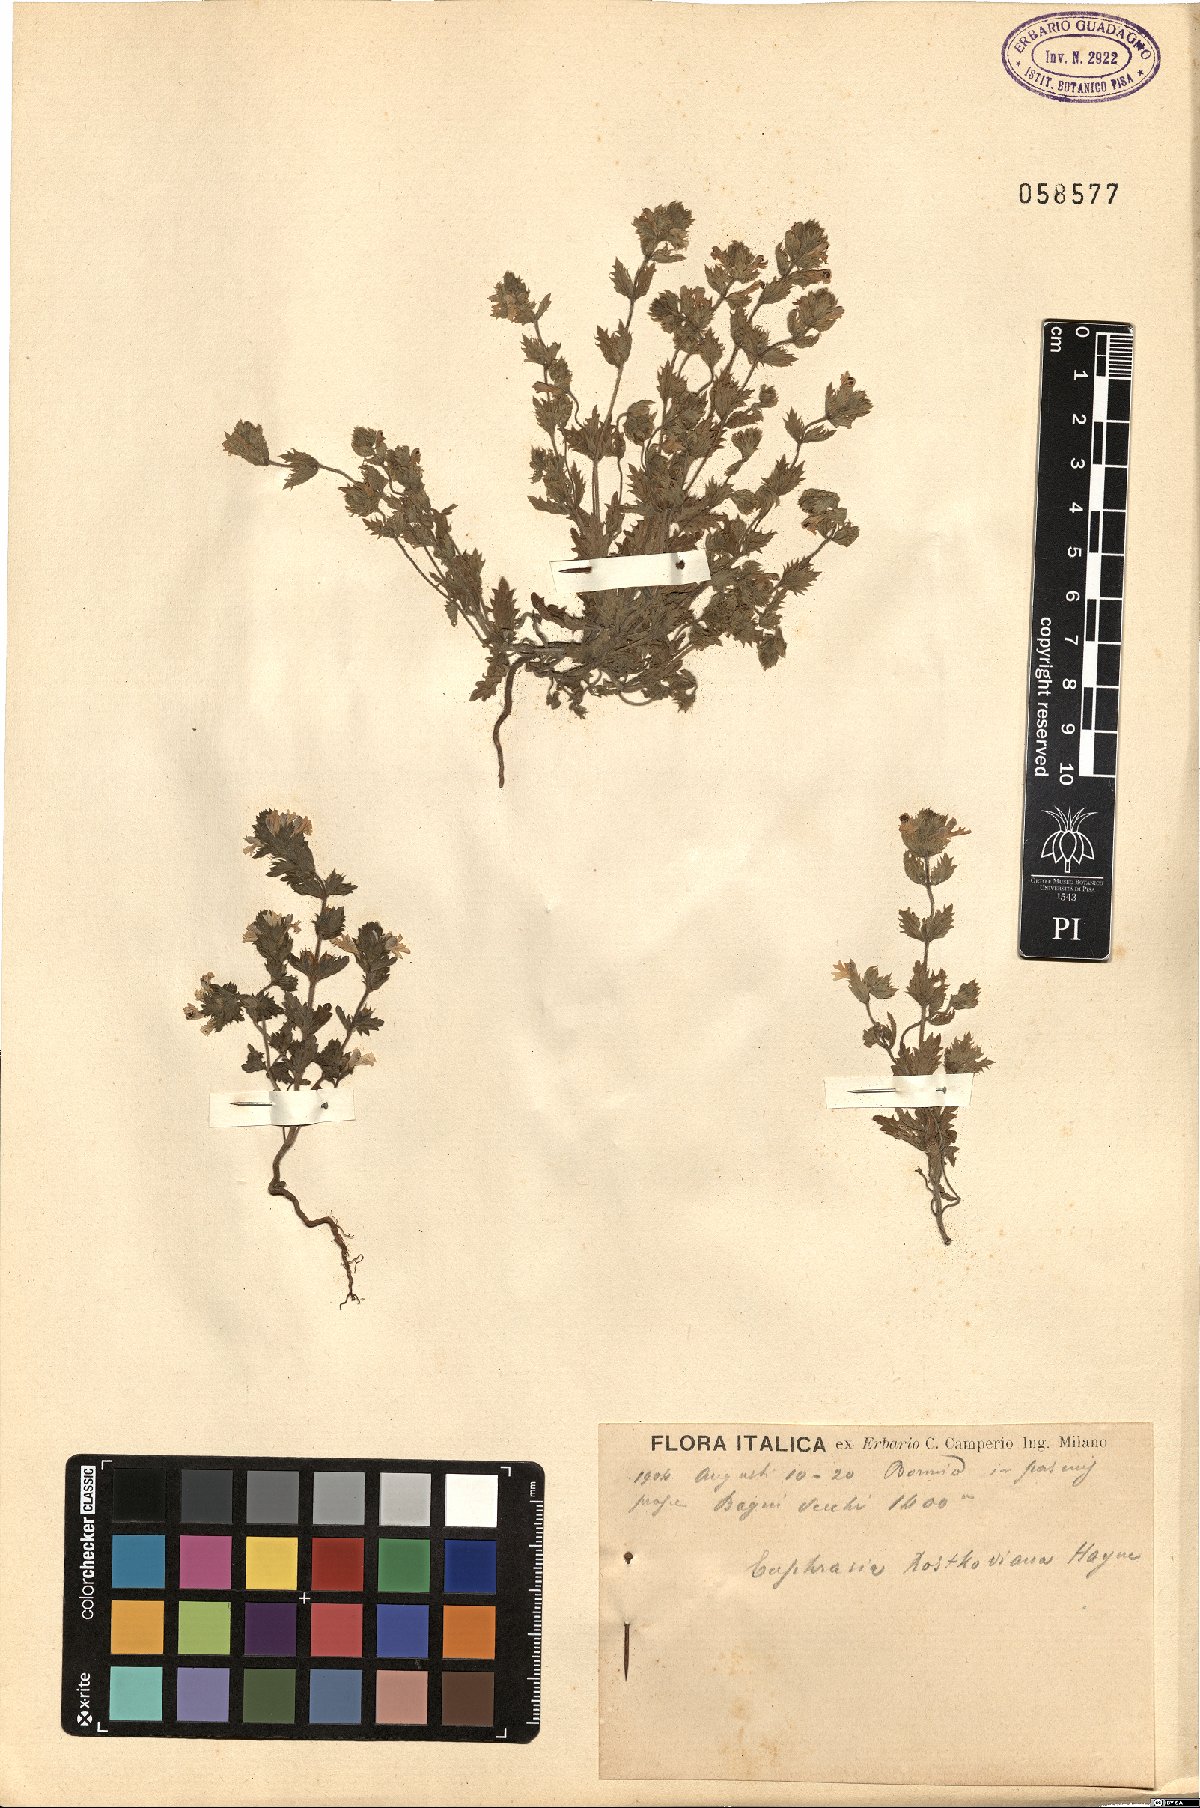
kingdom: Plantae
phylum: Tracheophyta
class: Magnoliopsida
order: Lamiales
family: Orobanchaceae
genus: Euphrasia
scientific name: Euphrasia officinalis
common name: Eyebright
